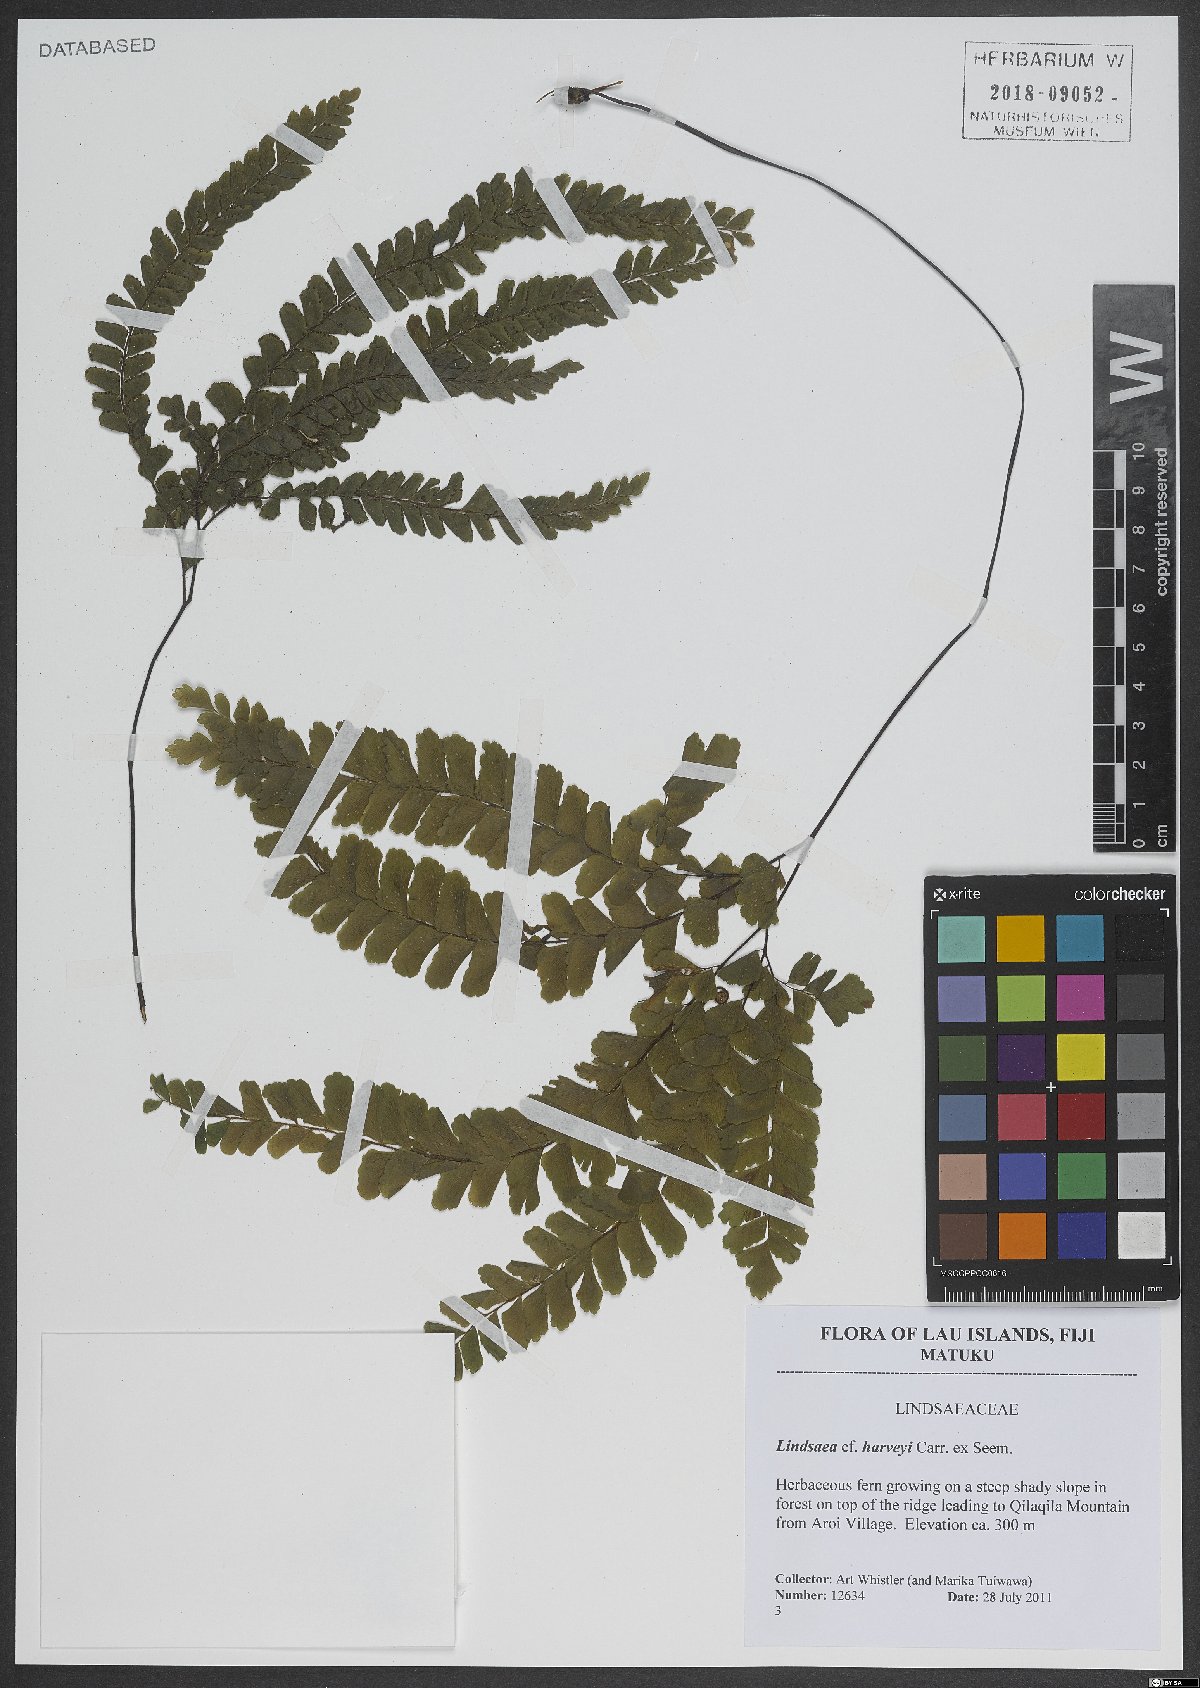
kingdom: Plantae
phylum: Tracheophyta
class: Polypodiopsida
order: Polypodiales
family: Lindsaeaceae
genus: Lindsaea
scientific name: Lindsaea harveyi
